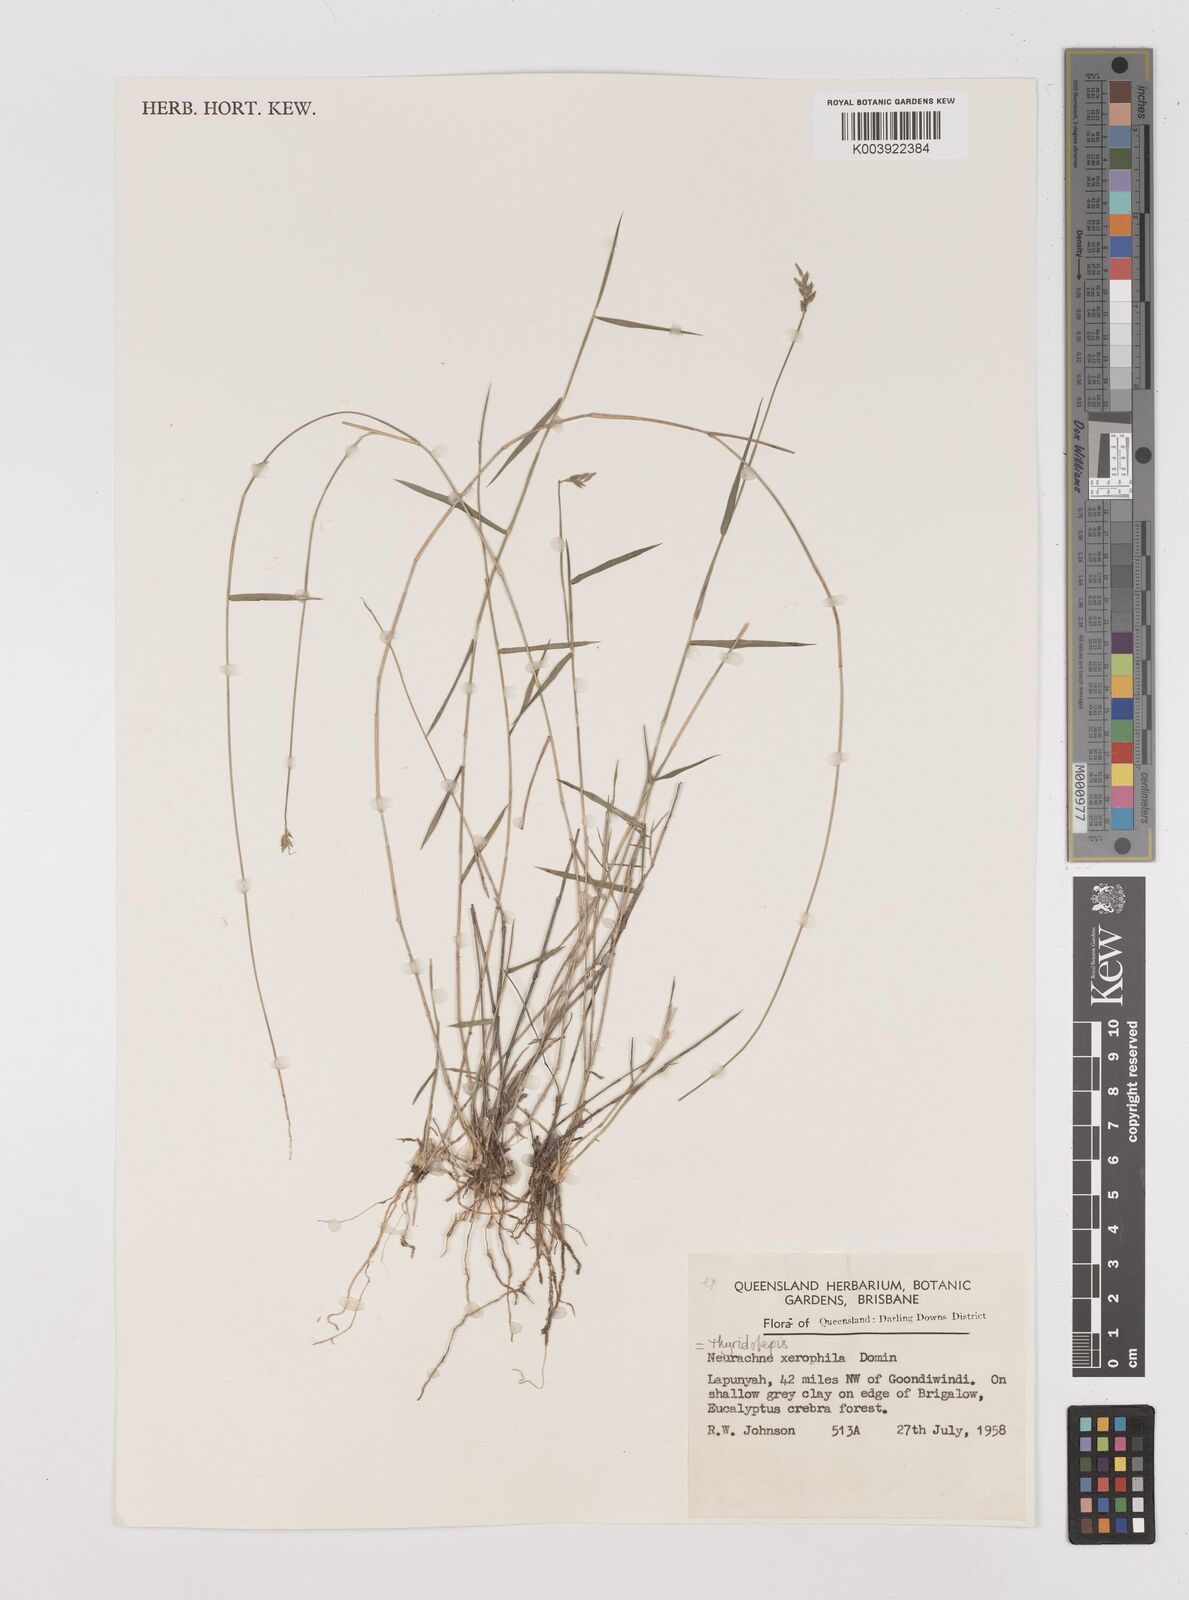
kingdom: Plantae
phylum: Tracheophyta
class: Liliopsida
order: Poales
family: Poaceae
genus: Thyridolepis
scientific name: Thyridolepis xerophila
